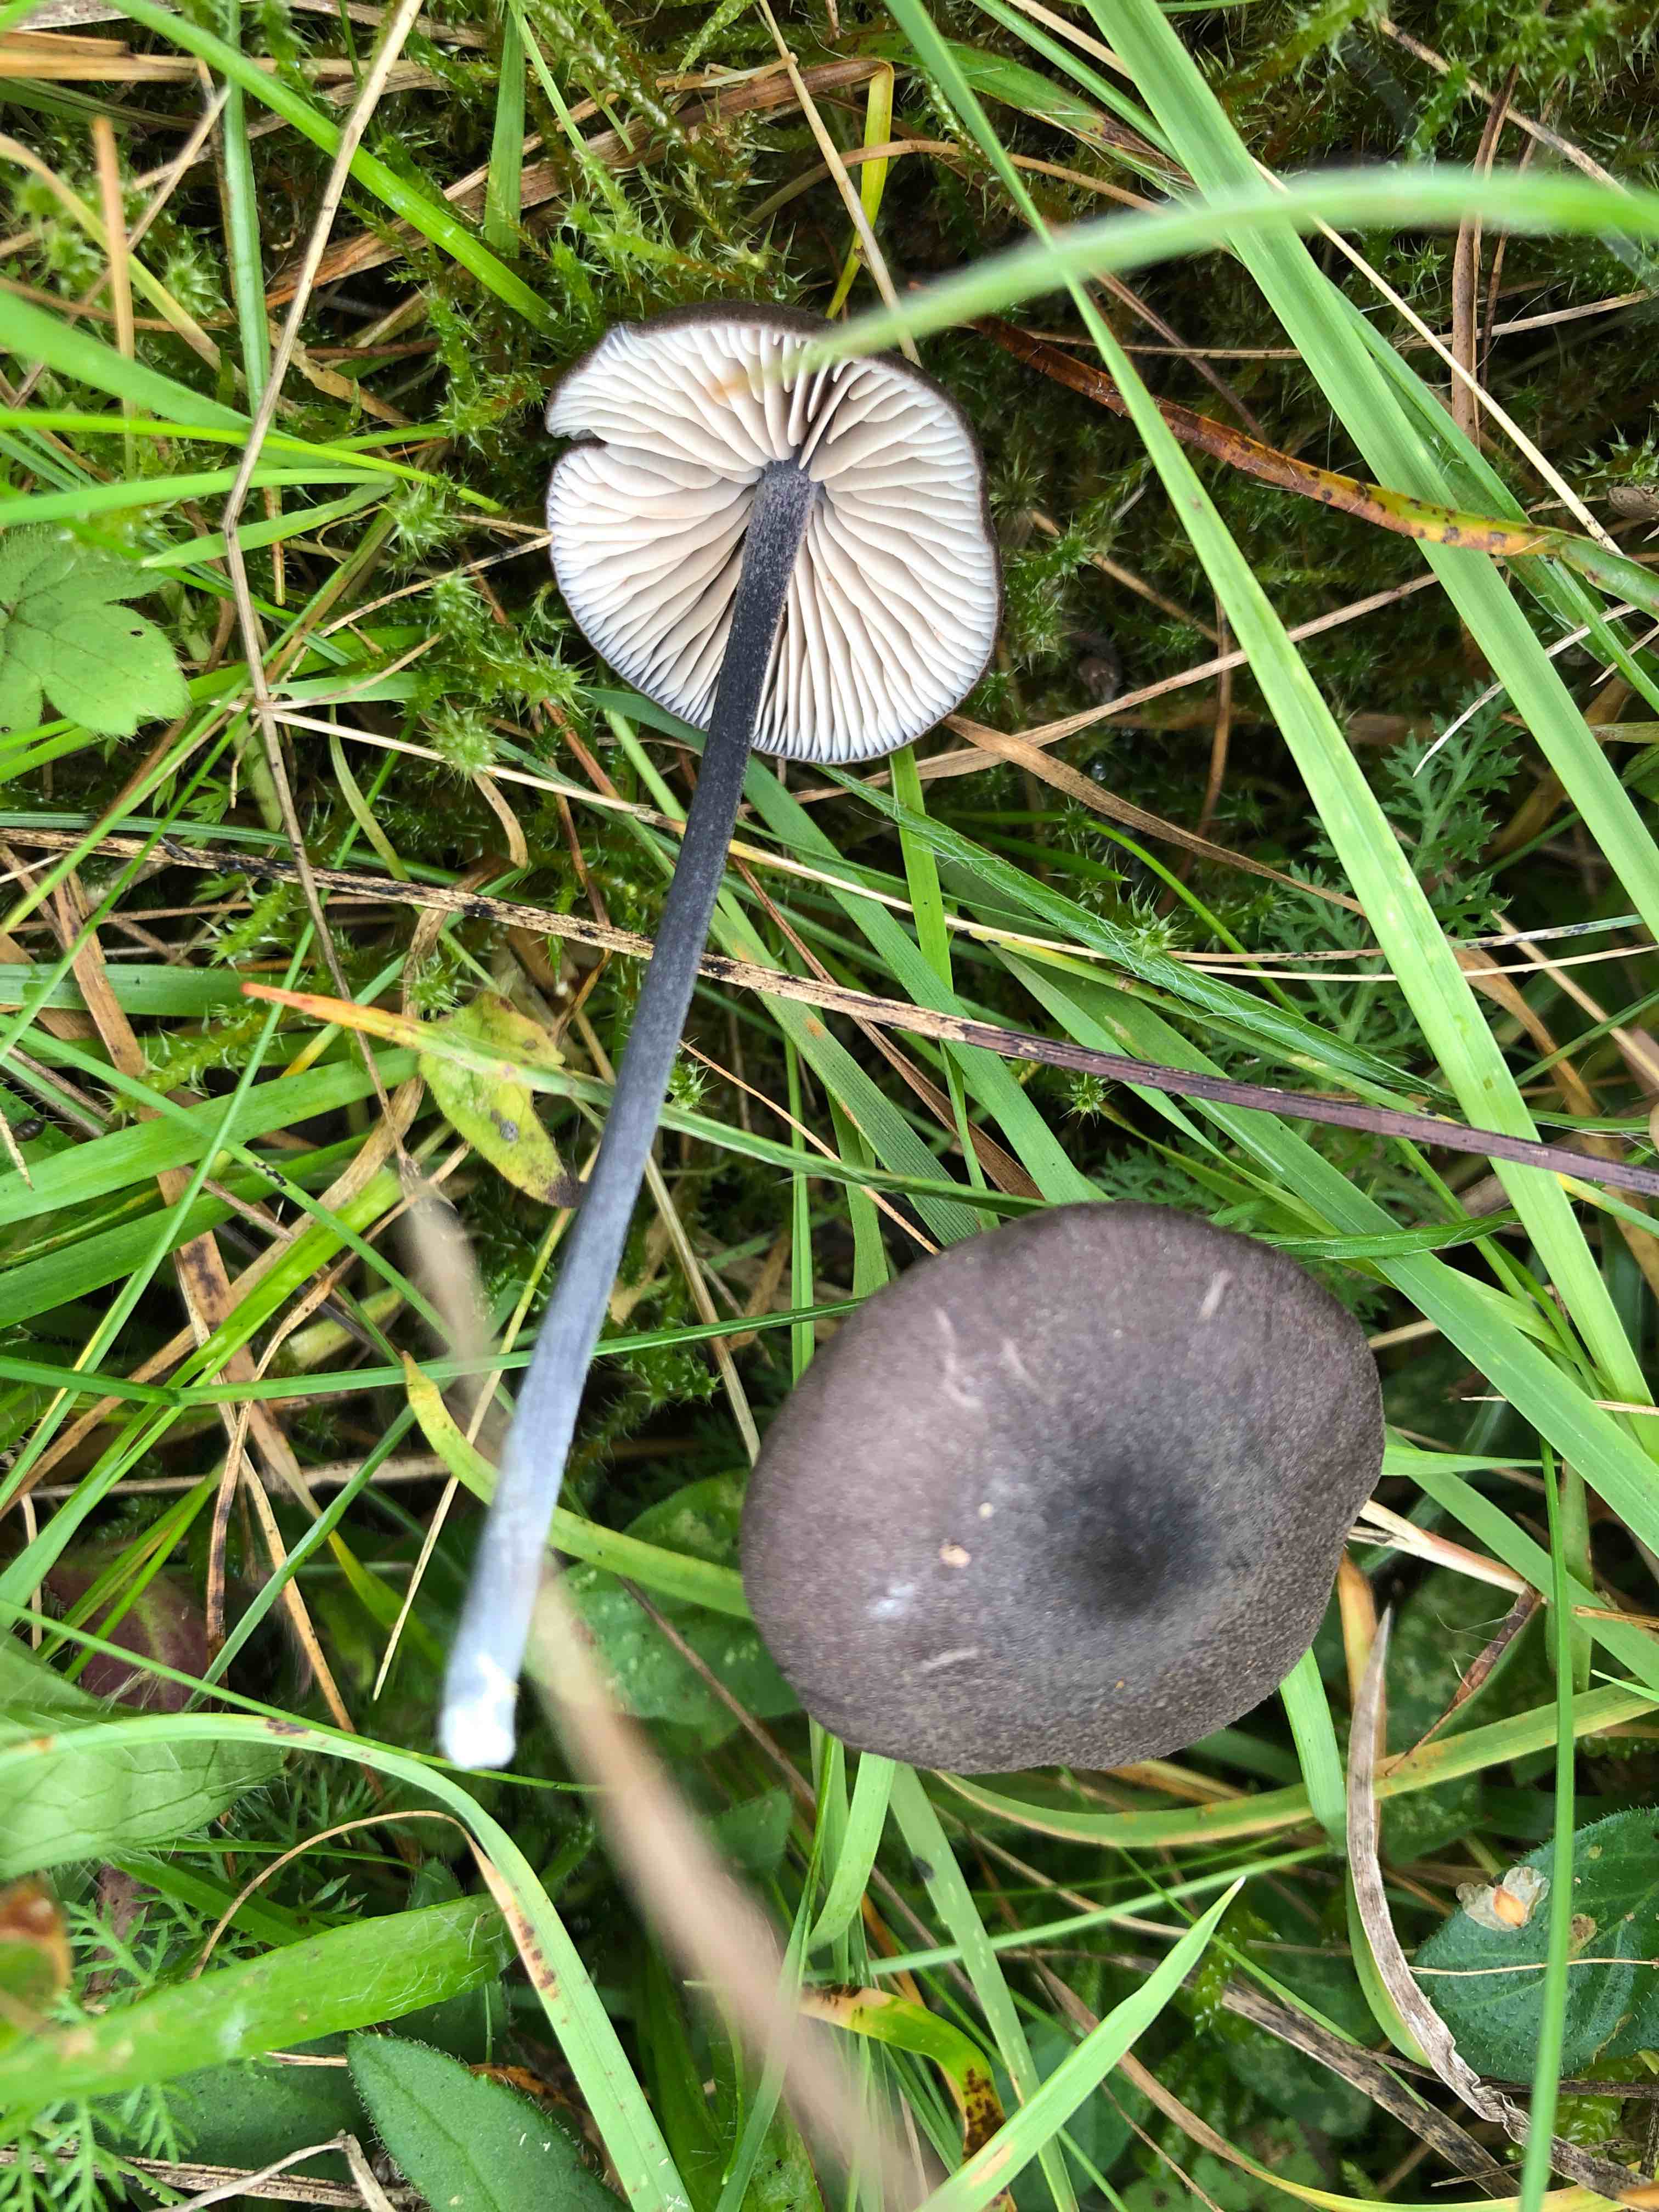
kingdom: Fungi
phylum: Basidiomycota
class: Agaricomycetes
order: Agaricales
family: Entolomataceae
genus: Entoloma
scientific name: Entoloma atrocoeruleum
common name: sortblå rødblad
